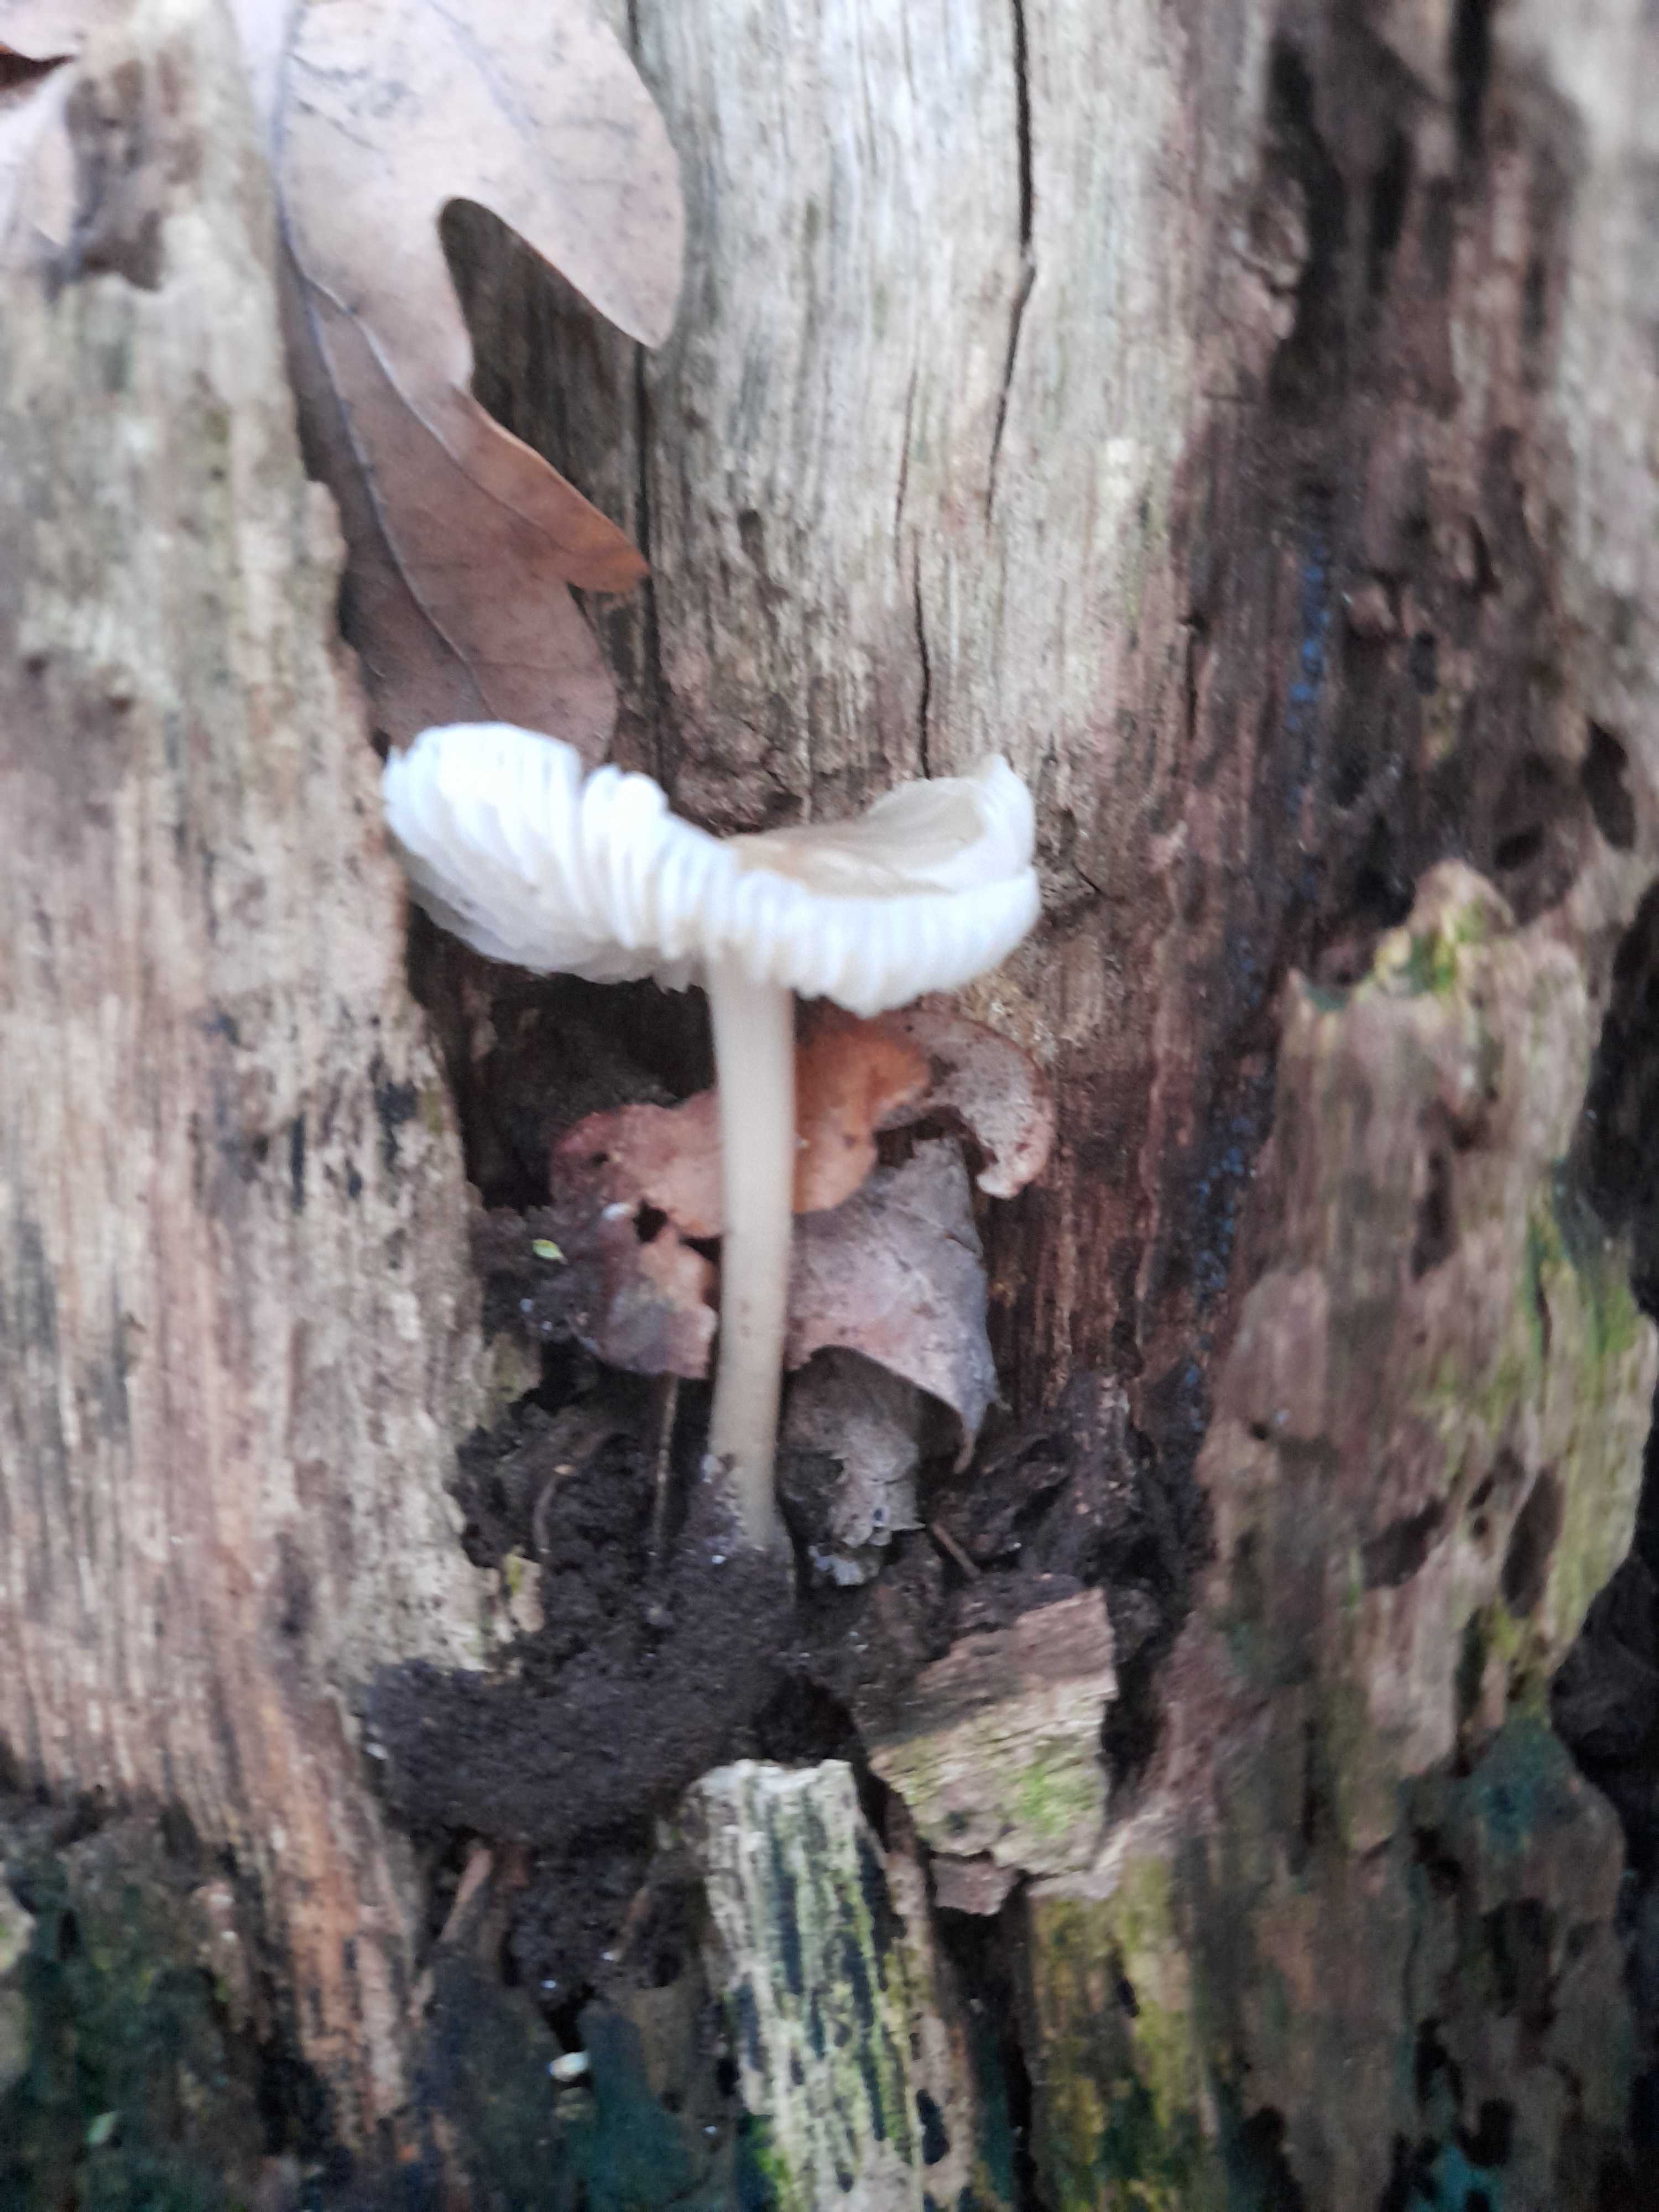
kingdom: Fungi
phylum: Basidiomycota
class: Agaricomycetes
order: Agaricales
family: Mycenaceae
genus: Mycena
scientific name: Mycena galericulata
